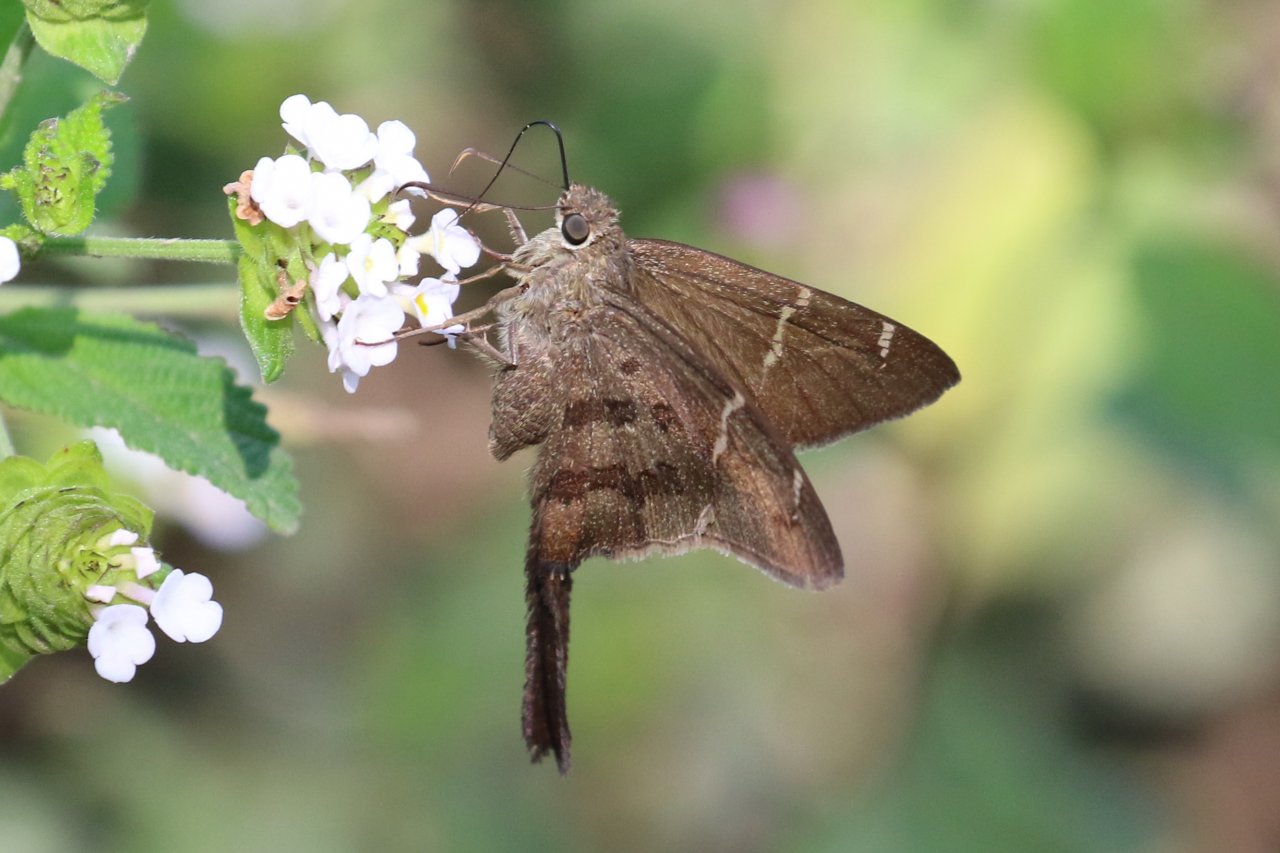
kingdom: Animalia
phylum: Arthropoda
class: Insecta
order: Lepidoptera
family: Hesperiidae
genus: Urbanus
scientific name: Urbanus procne
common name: Brown Longtail
